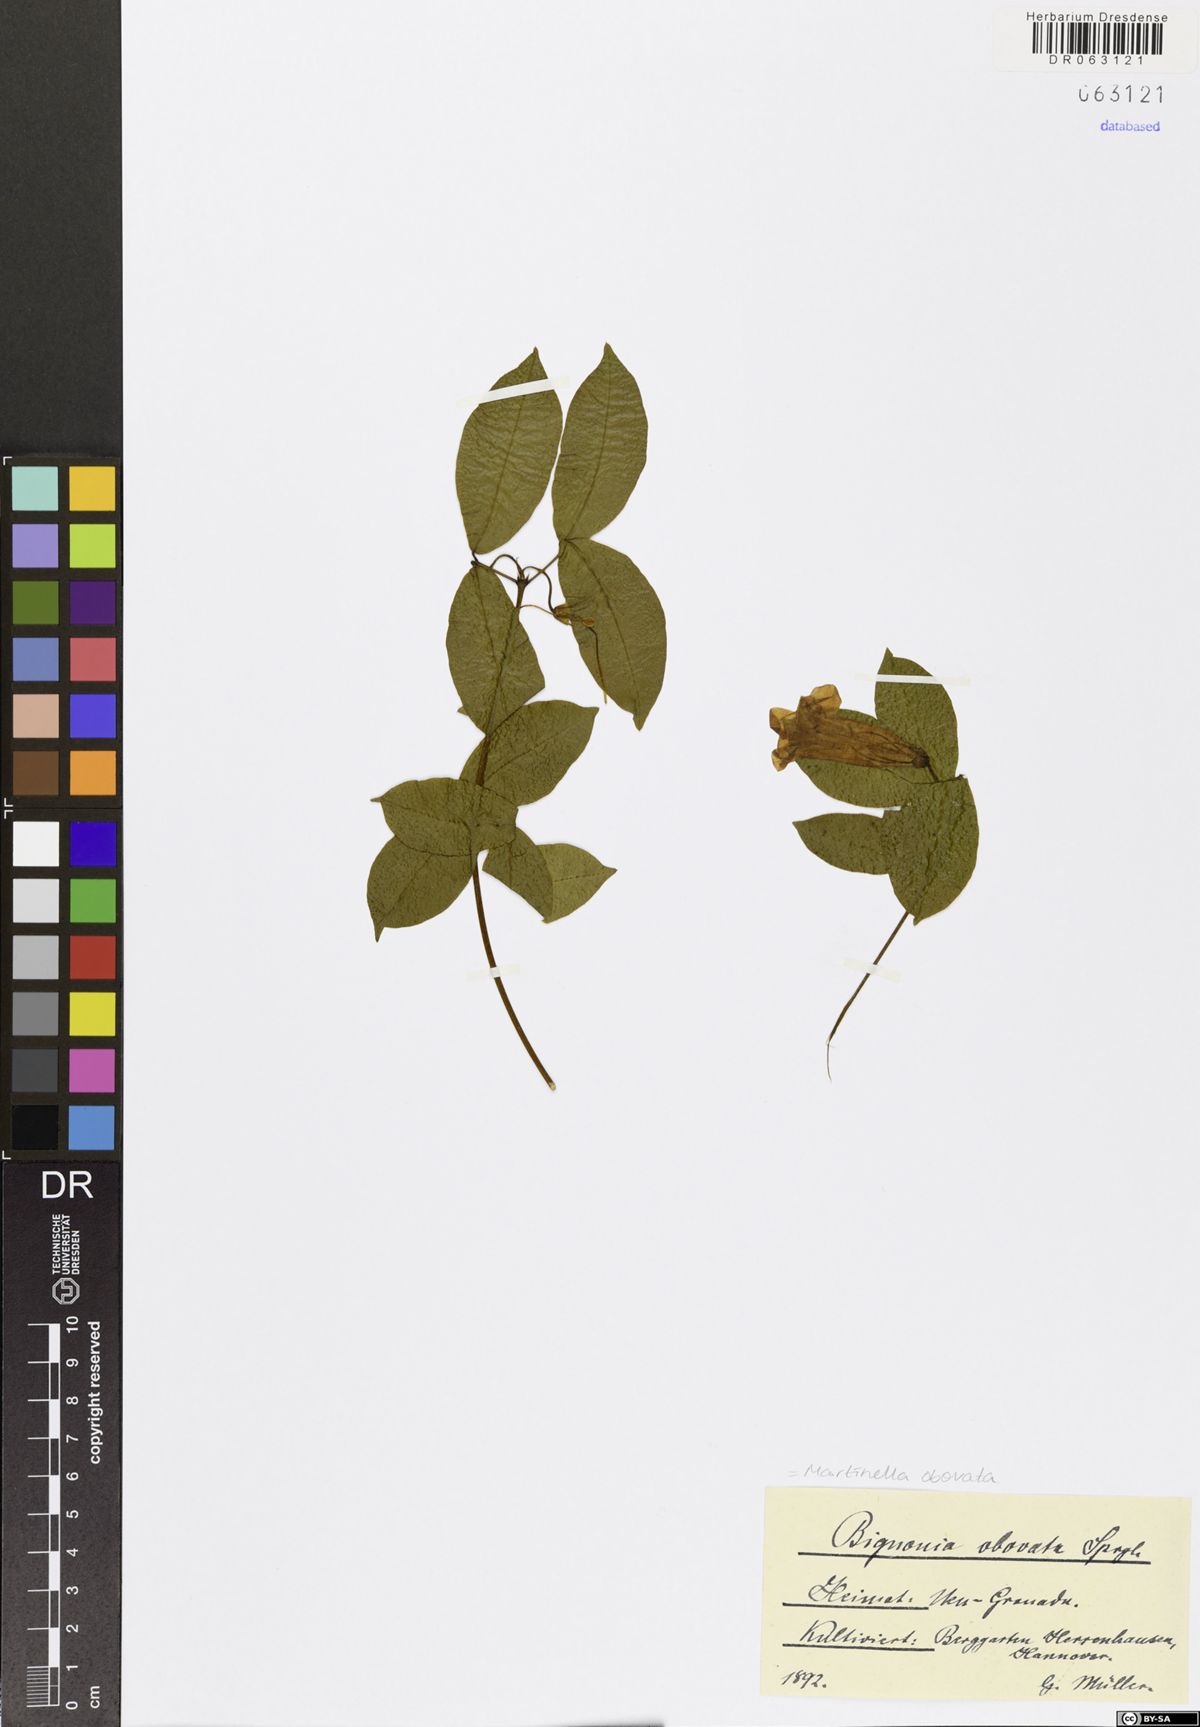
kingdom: Animalia
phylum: Arthropoda
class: Insecta
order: Coleoptera
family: Chrysomelidae
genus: Martinella
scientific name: Martinella obovata
